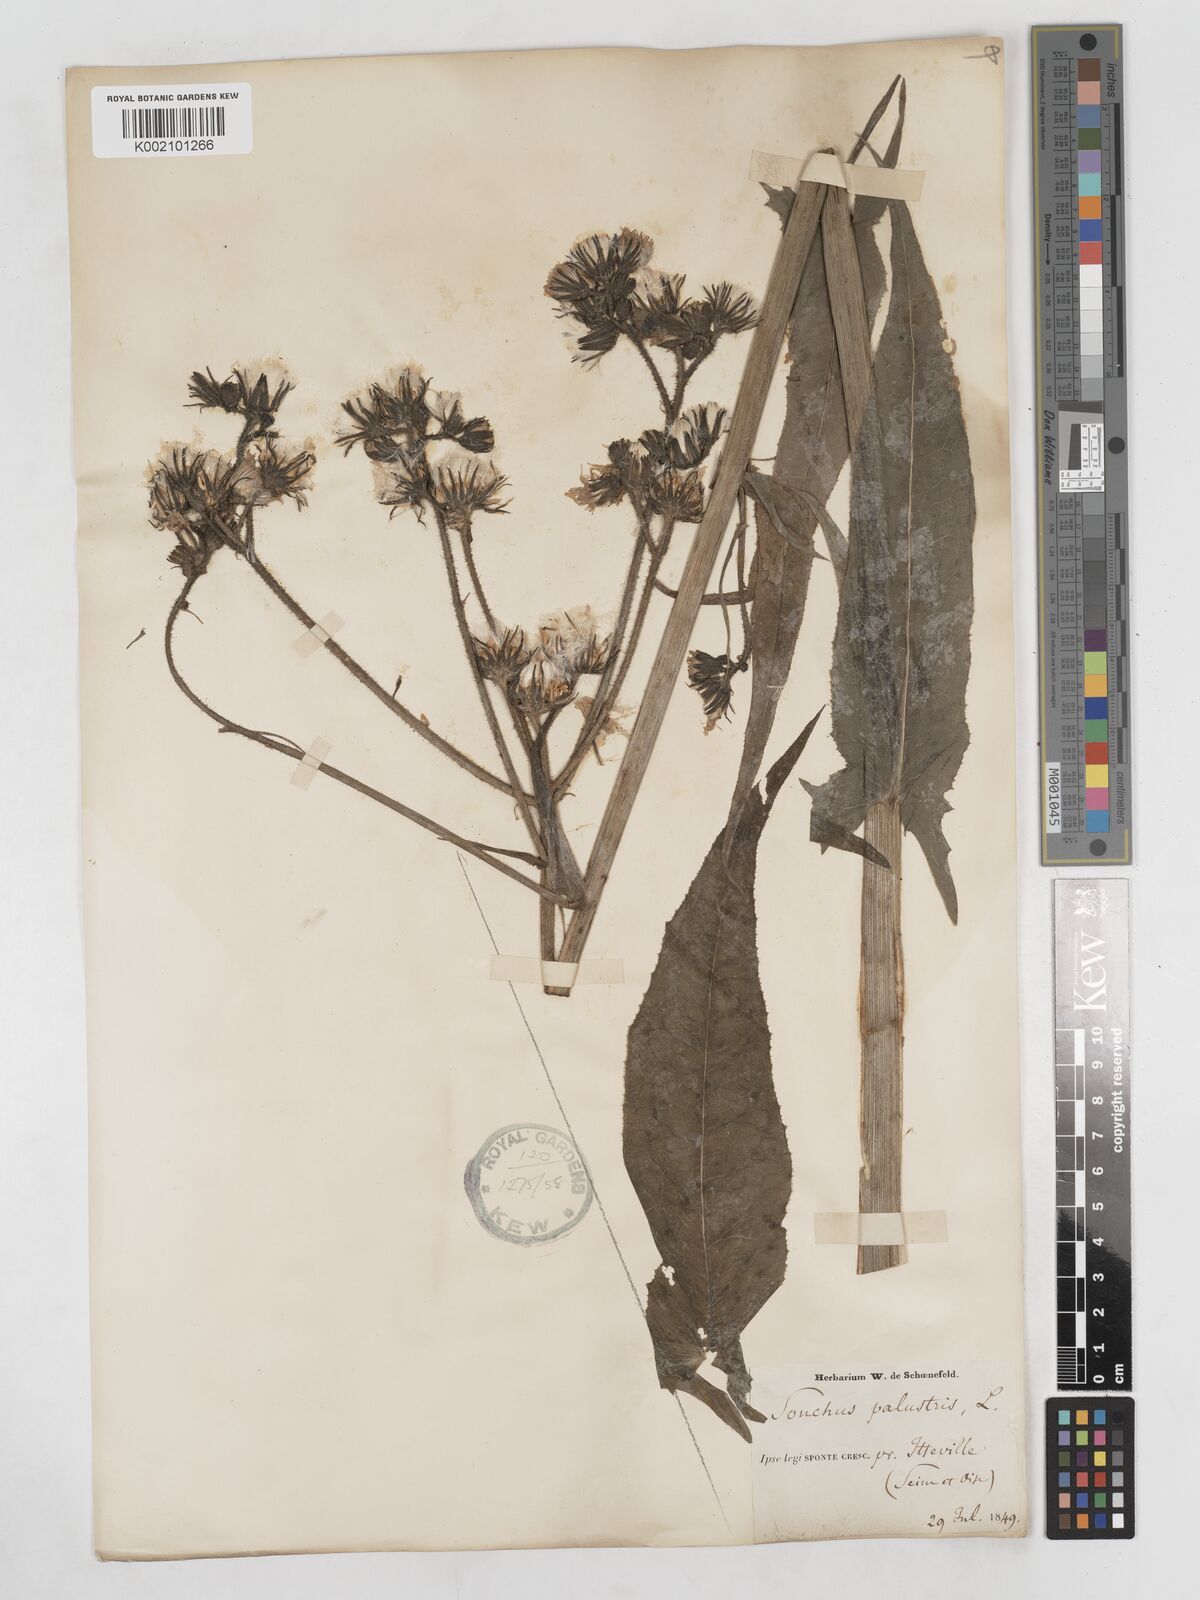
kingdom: Plantae
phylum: Tracheophyta
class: Magnoliopsida
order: Asterales
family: Asteraceae
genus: Sonchus
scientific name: Sonchus palustris
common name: Marsh sow-thistle
